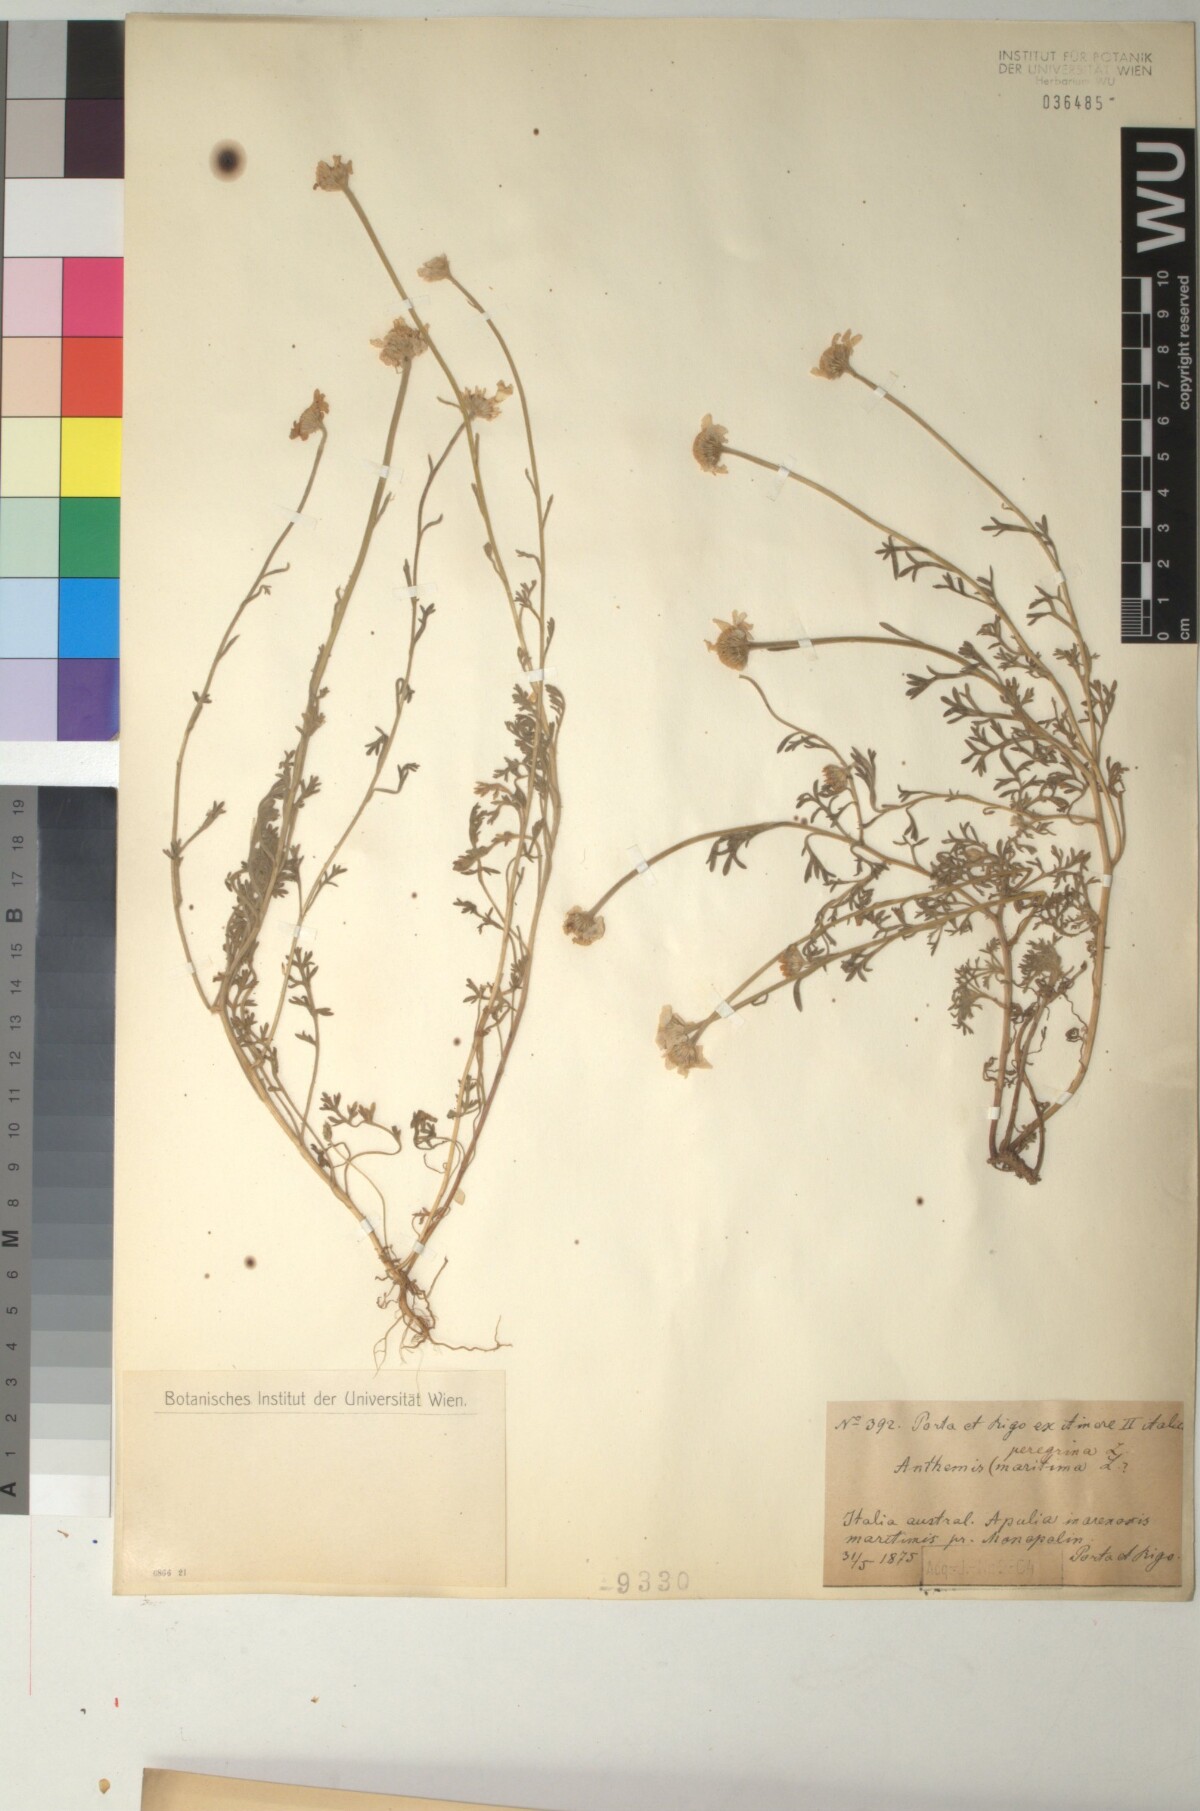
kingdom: Plantae
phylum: Tracheophyta
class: Magnoliopsida
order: Asterales
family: Asteraceae
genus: Anthemis
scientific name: Anthemis tomentosa
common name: Woolly chamomile
